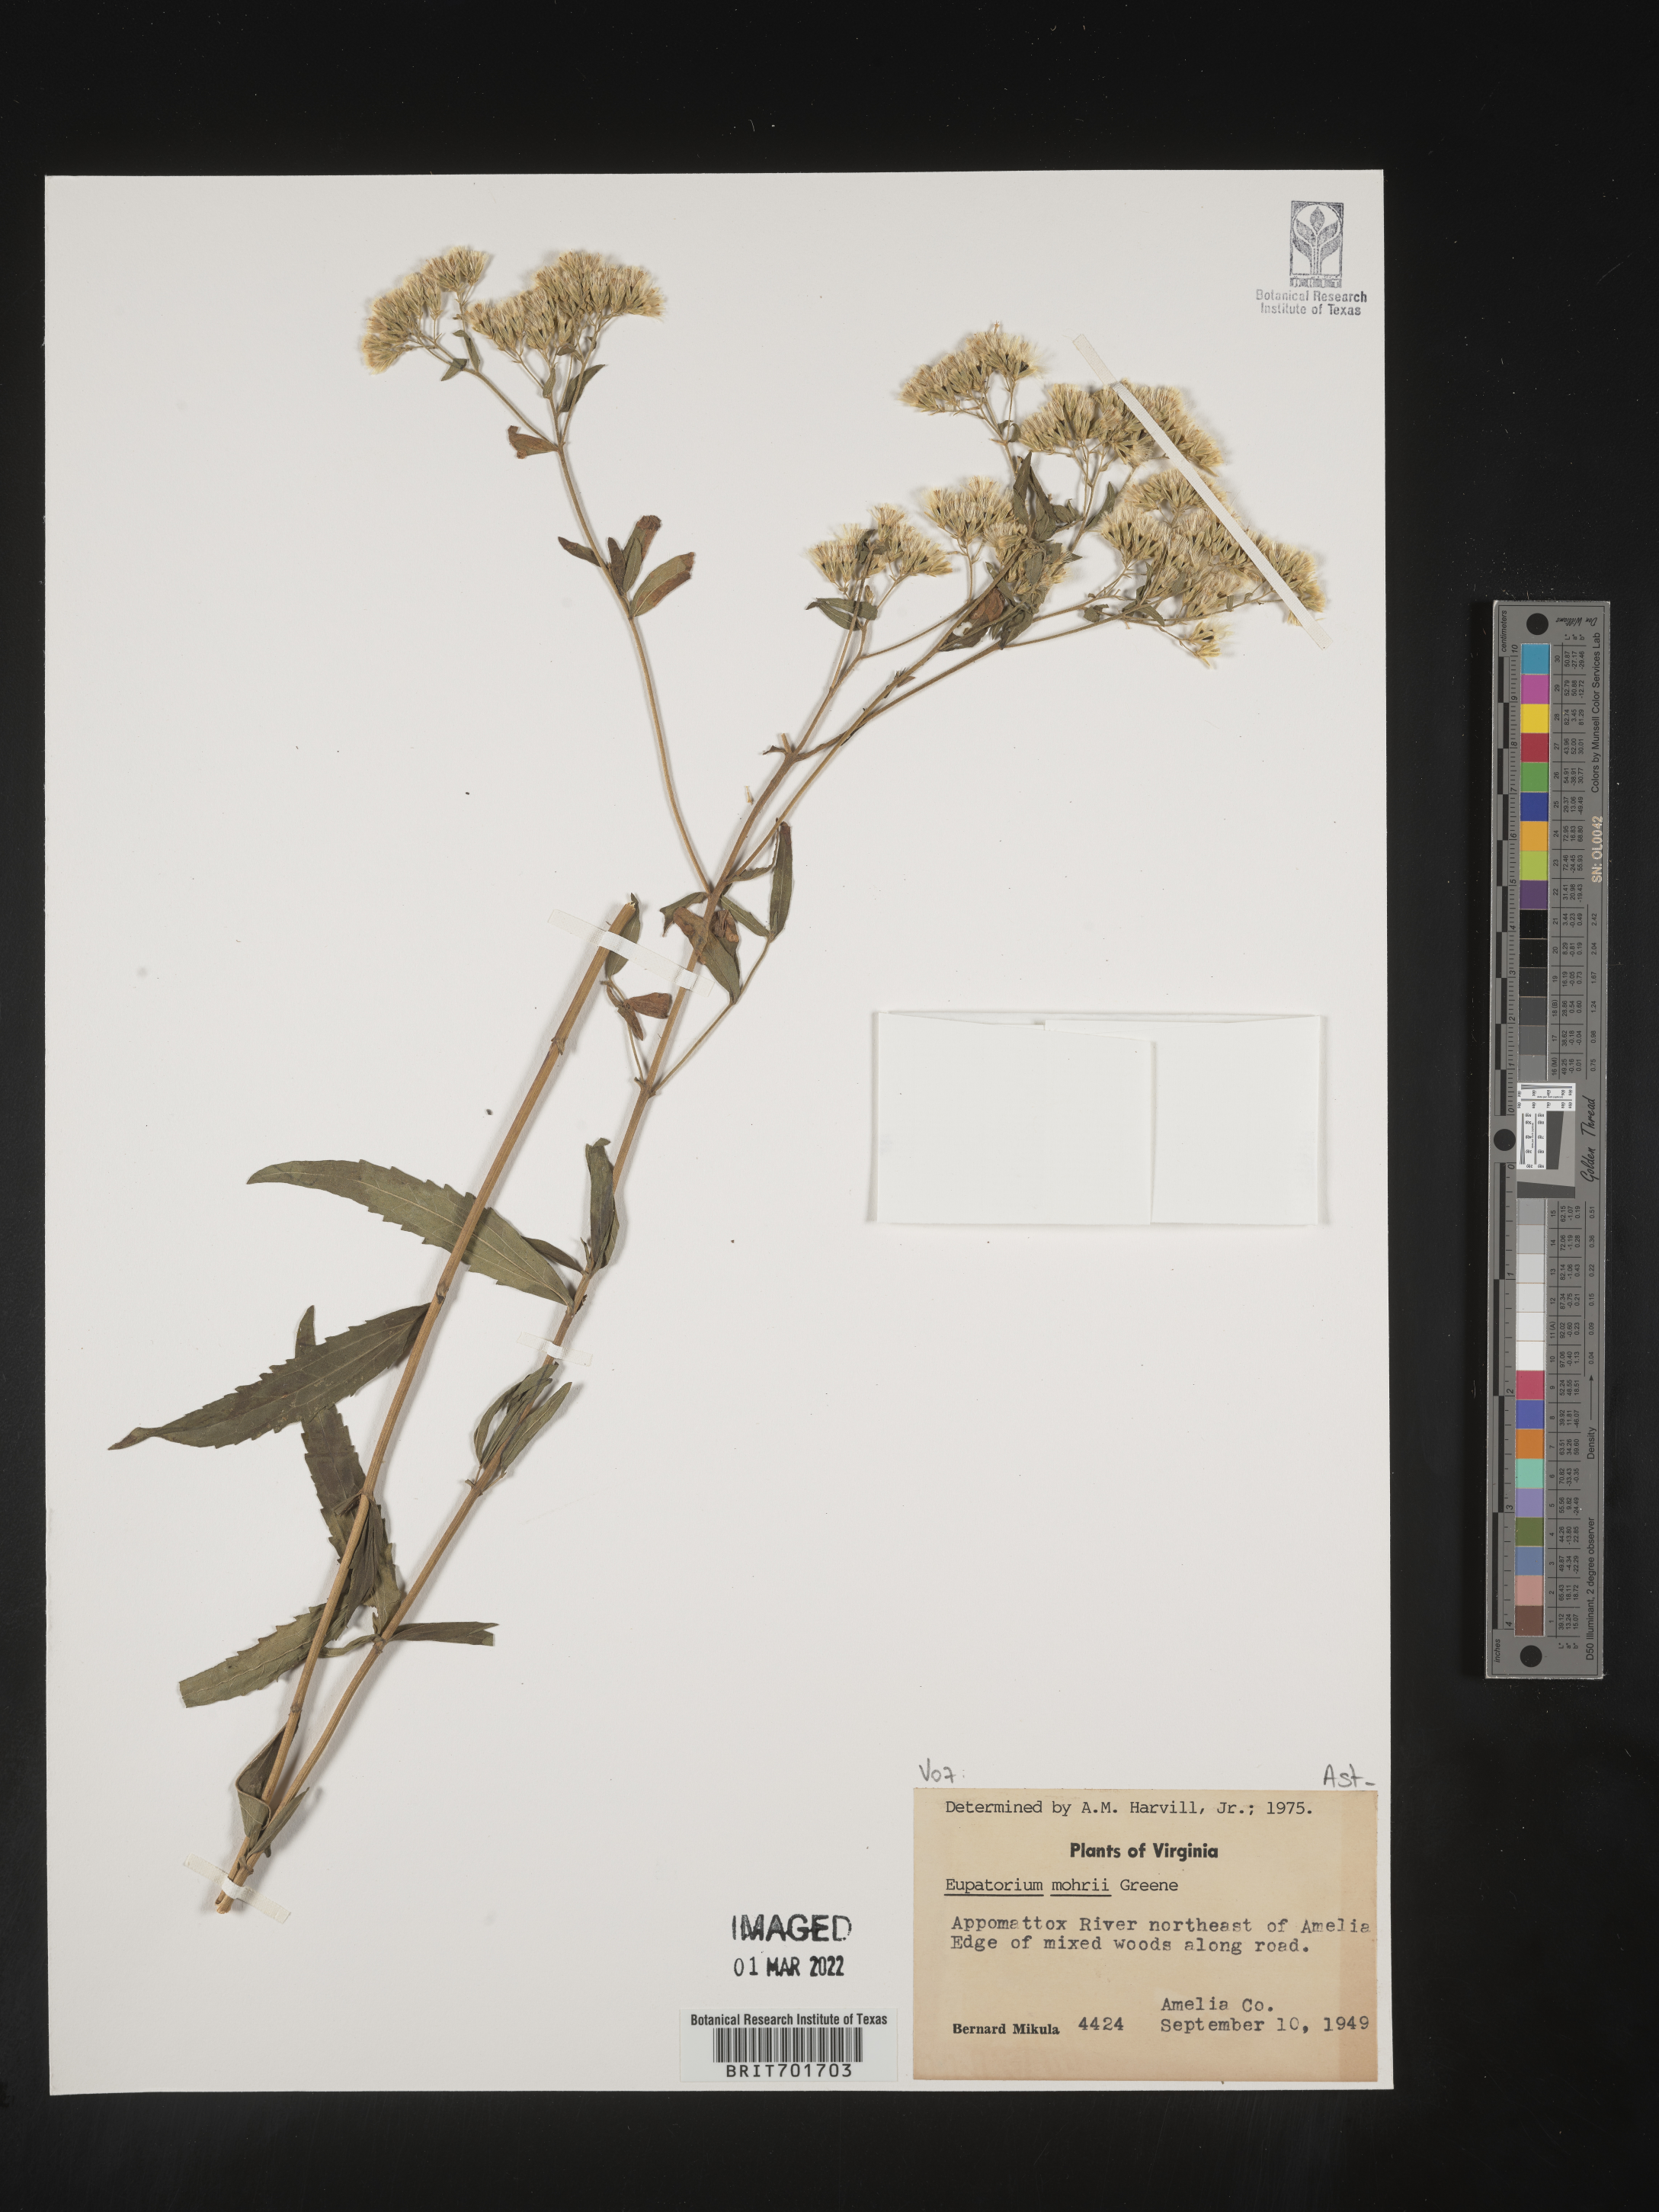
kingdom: Plantae
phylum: Tracheophyta
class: Magnoliopsida
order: Asterales
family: Asteraceae
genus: Eupatorium
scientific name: Eupatorium mohrii
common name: Mohr's thoroughwort
